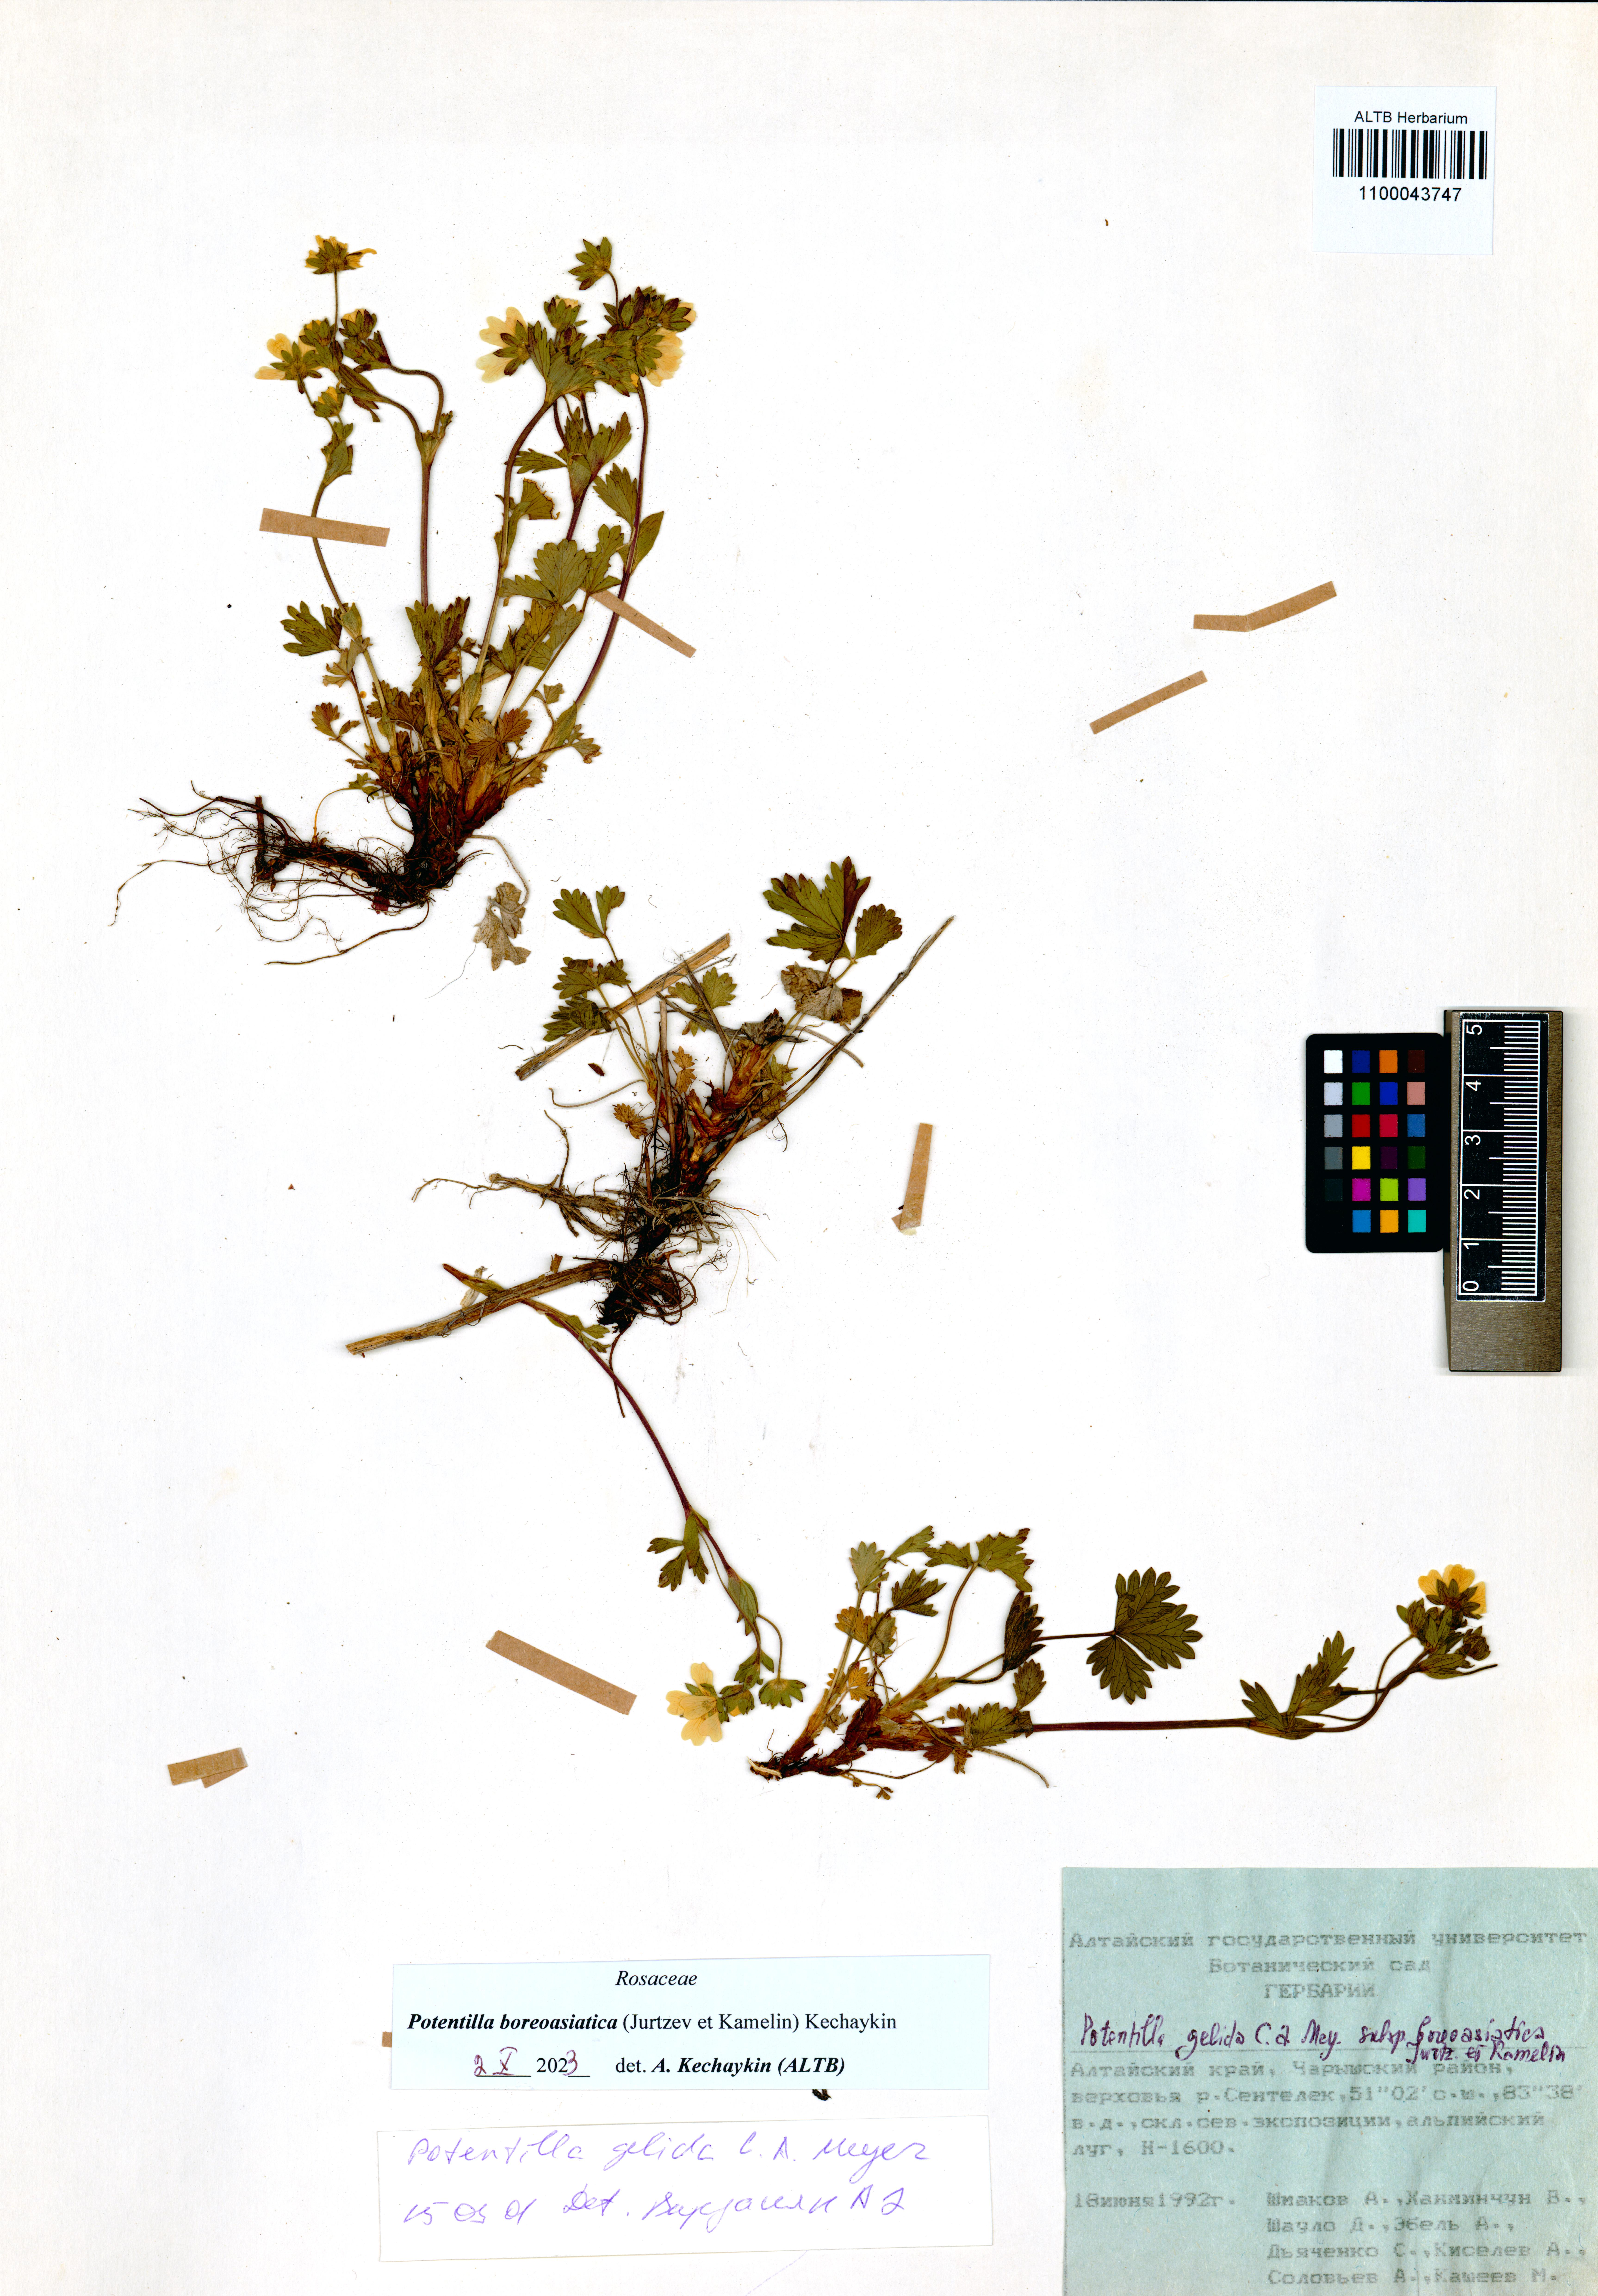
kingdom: Plantae
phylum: Tracheophyta
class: Magnoliopsida
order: Rosales
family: Rosaceae
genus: Potentilla
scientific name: Potentilla
